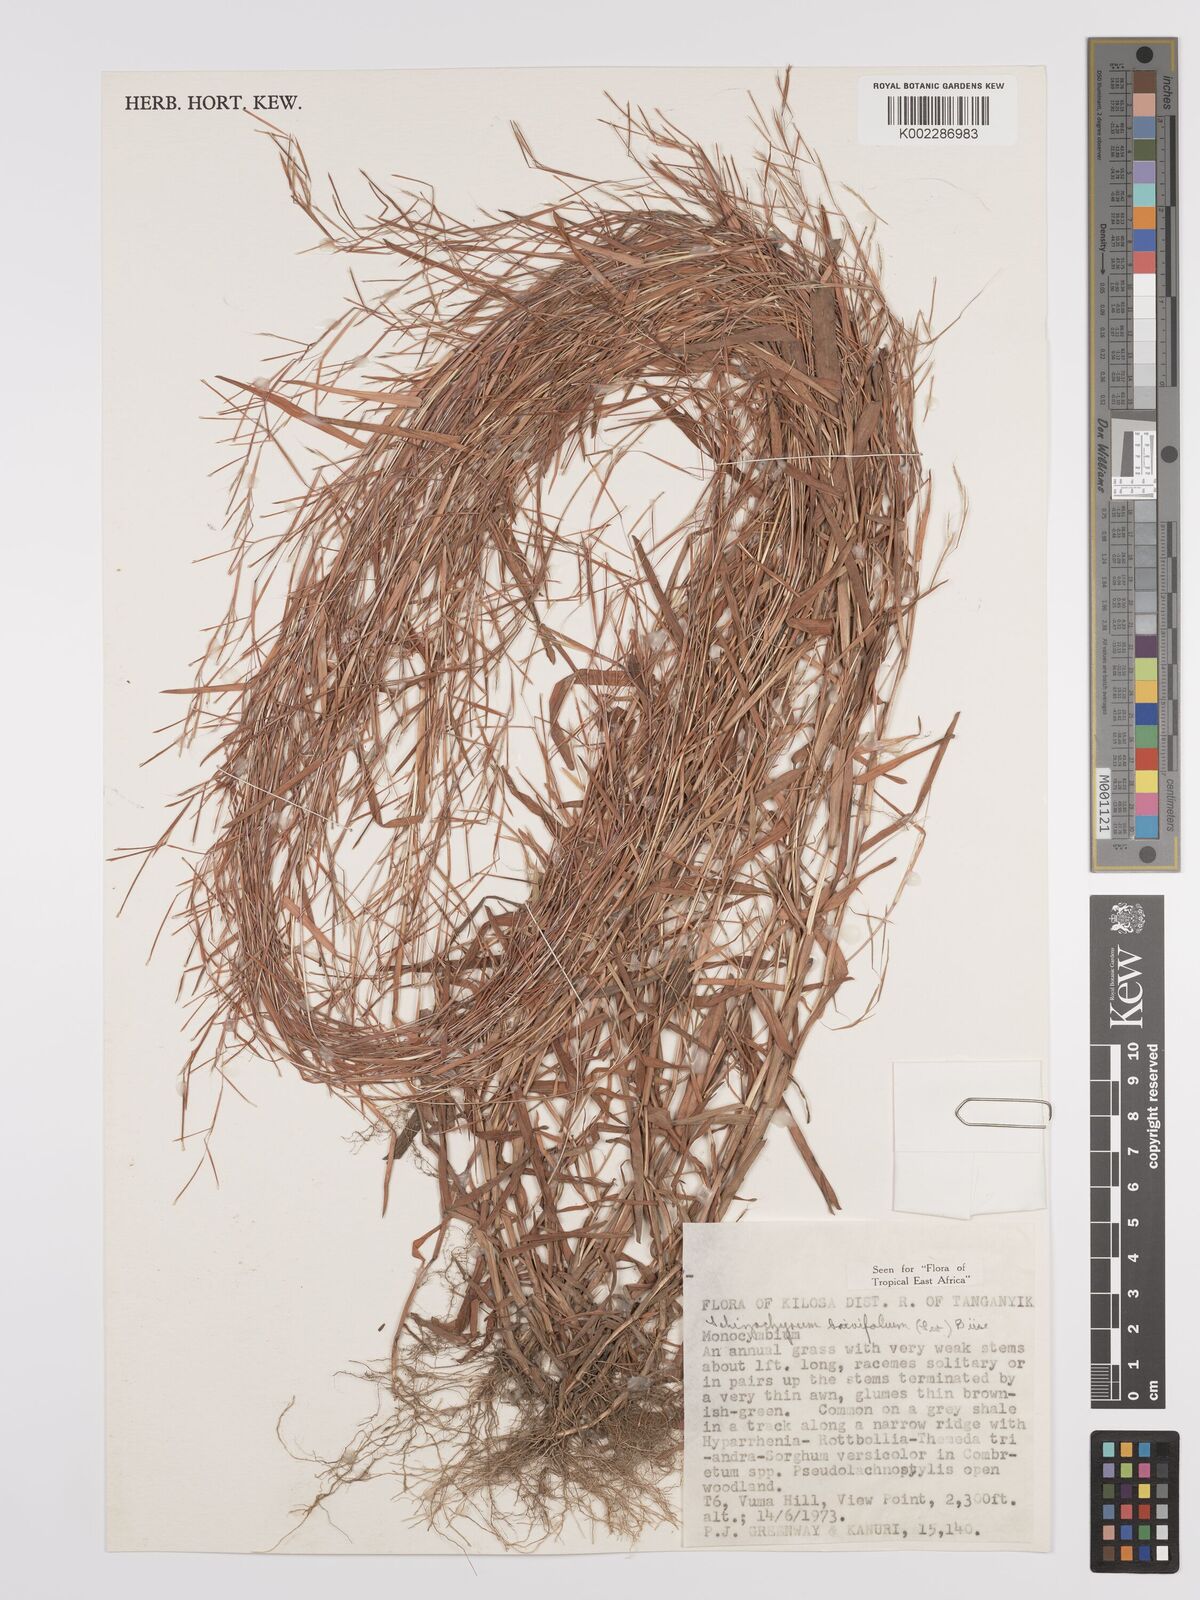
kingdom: Plantae
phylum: Tracheophyta
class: Liliopsida
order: Poales
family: Poaceae
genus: Schizachyrium
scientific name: Schizachyrium brevifolium
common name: Serillo dulce
